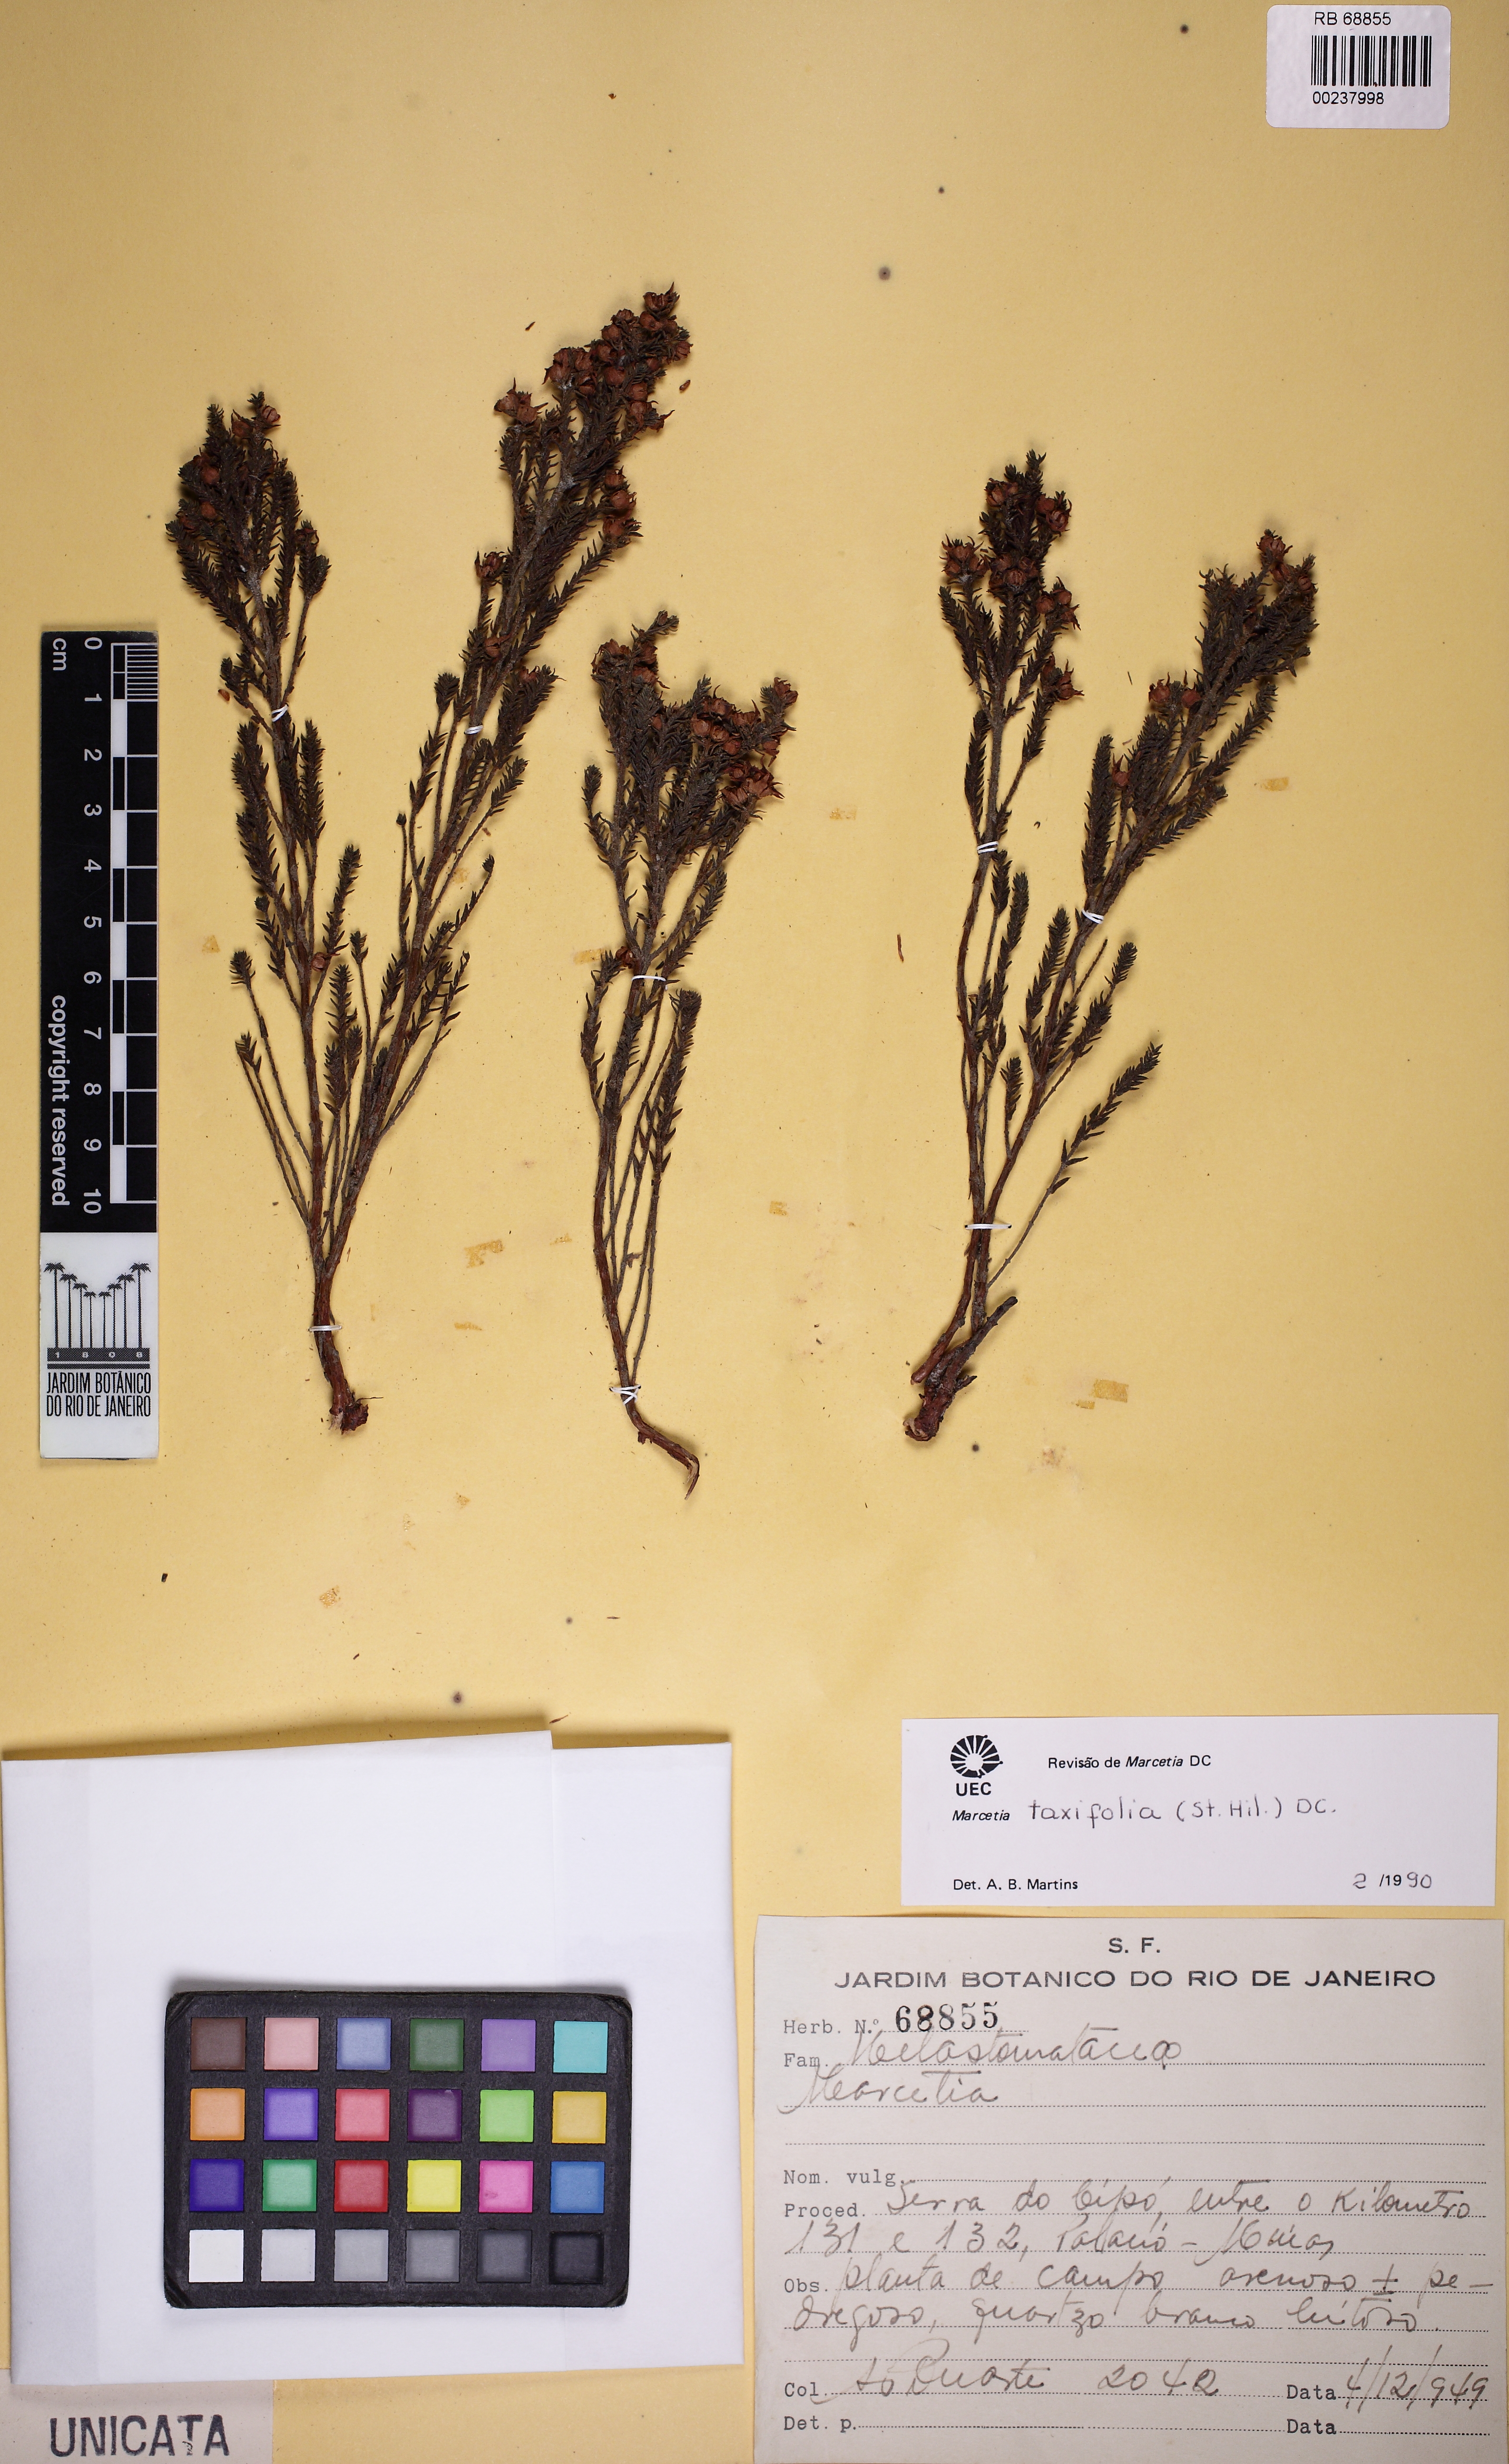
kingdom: Plantae
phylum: Tracheophyta
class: Magnoliopsida
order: Myrtales
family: Melastomataceae
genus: Marcetia
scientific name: Marcetia taxifolia
